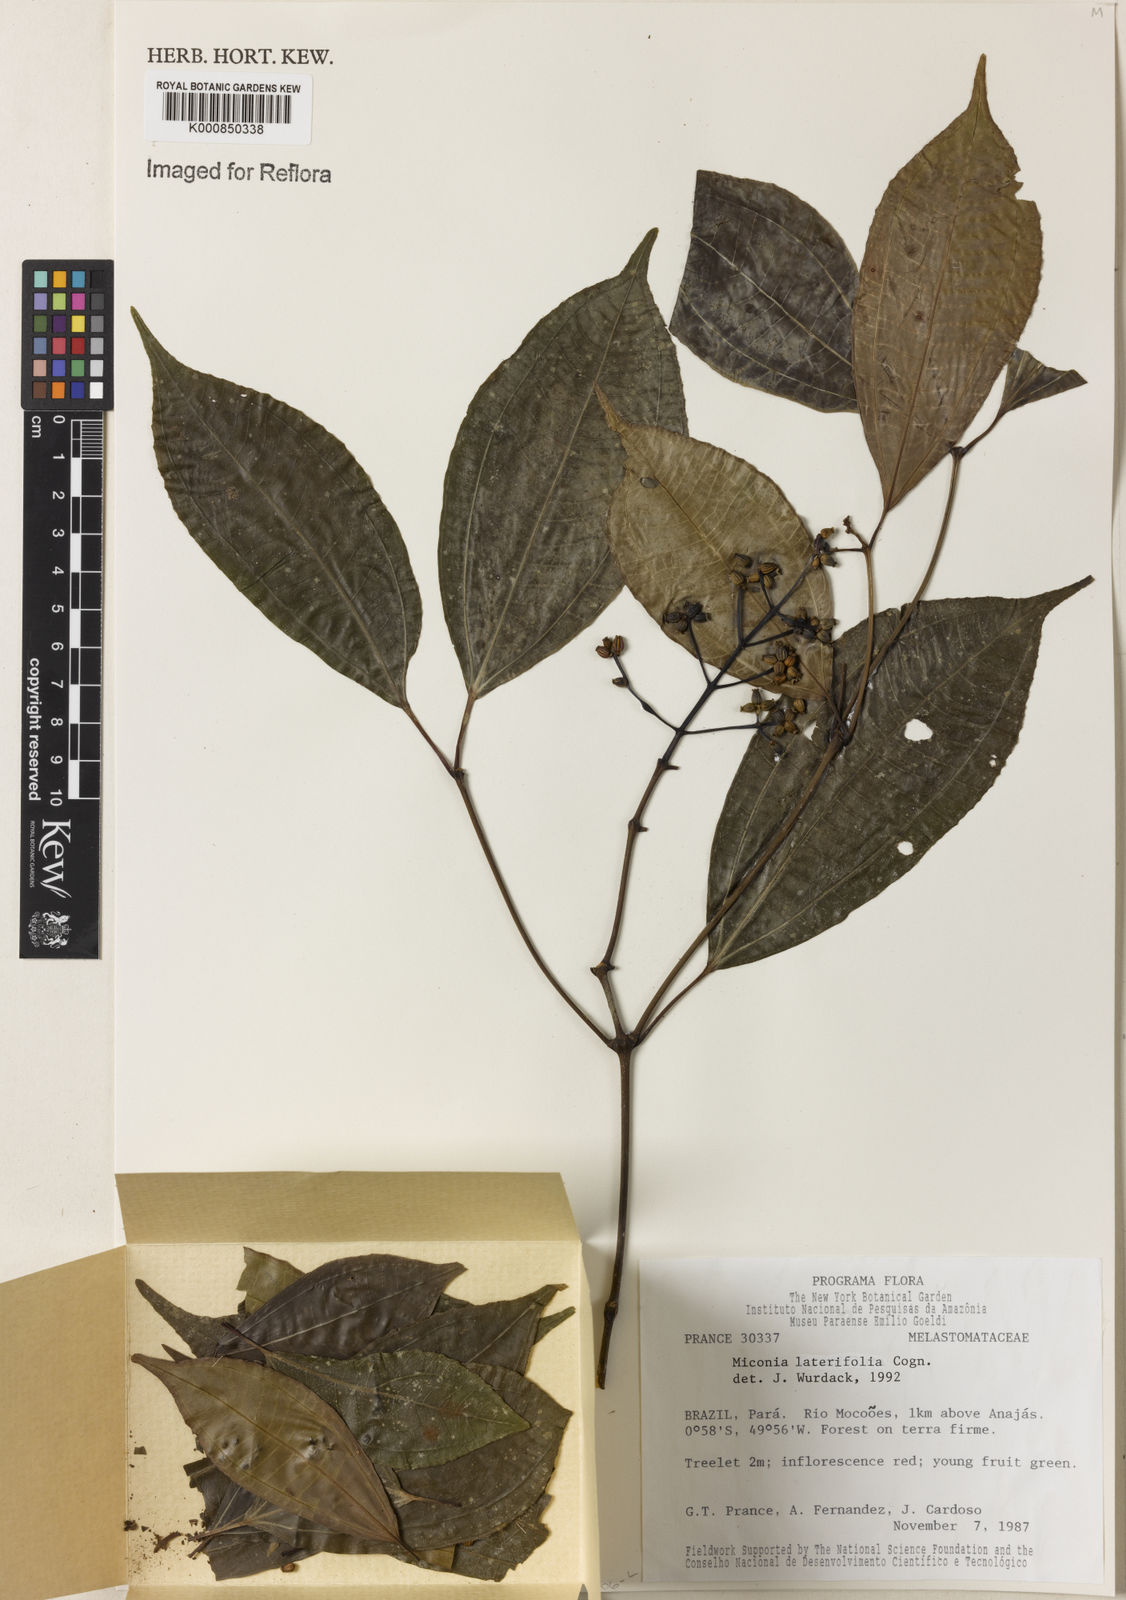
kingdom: Plantae
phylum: Tracheophyta
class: Magnoliopsida
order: Myrtales
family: Melastomataceae
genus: Miconia
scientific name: Miconia lateriflora
